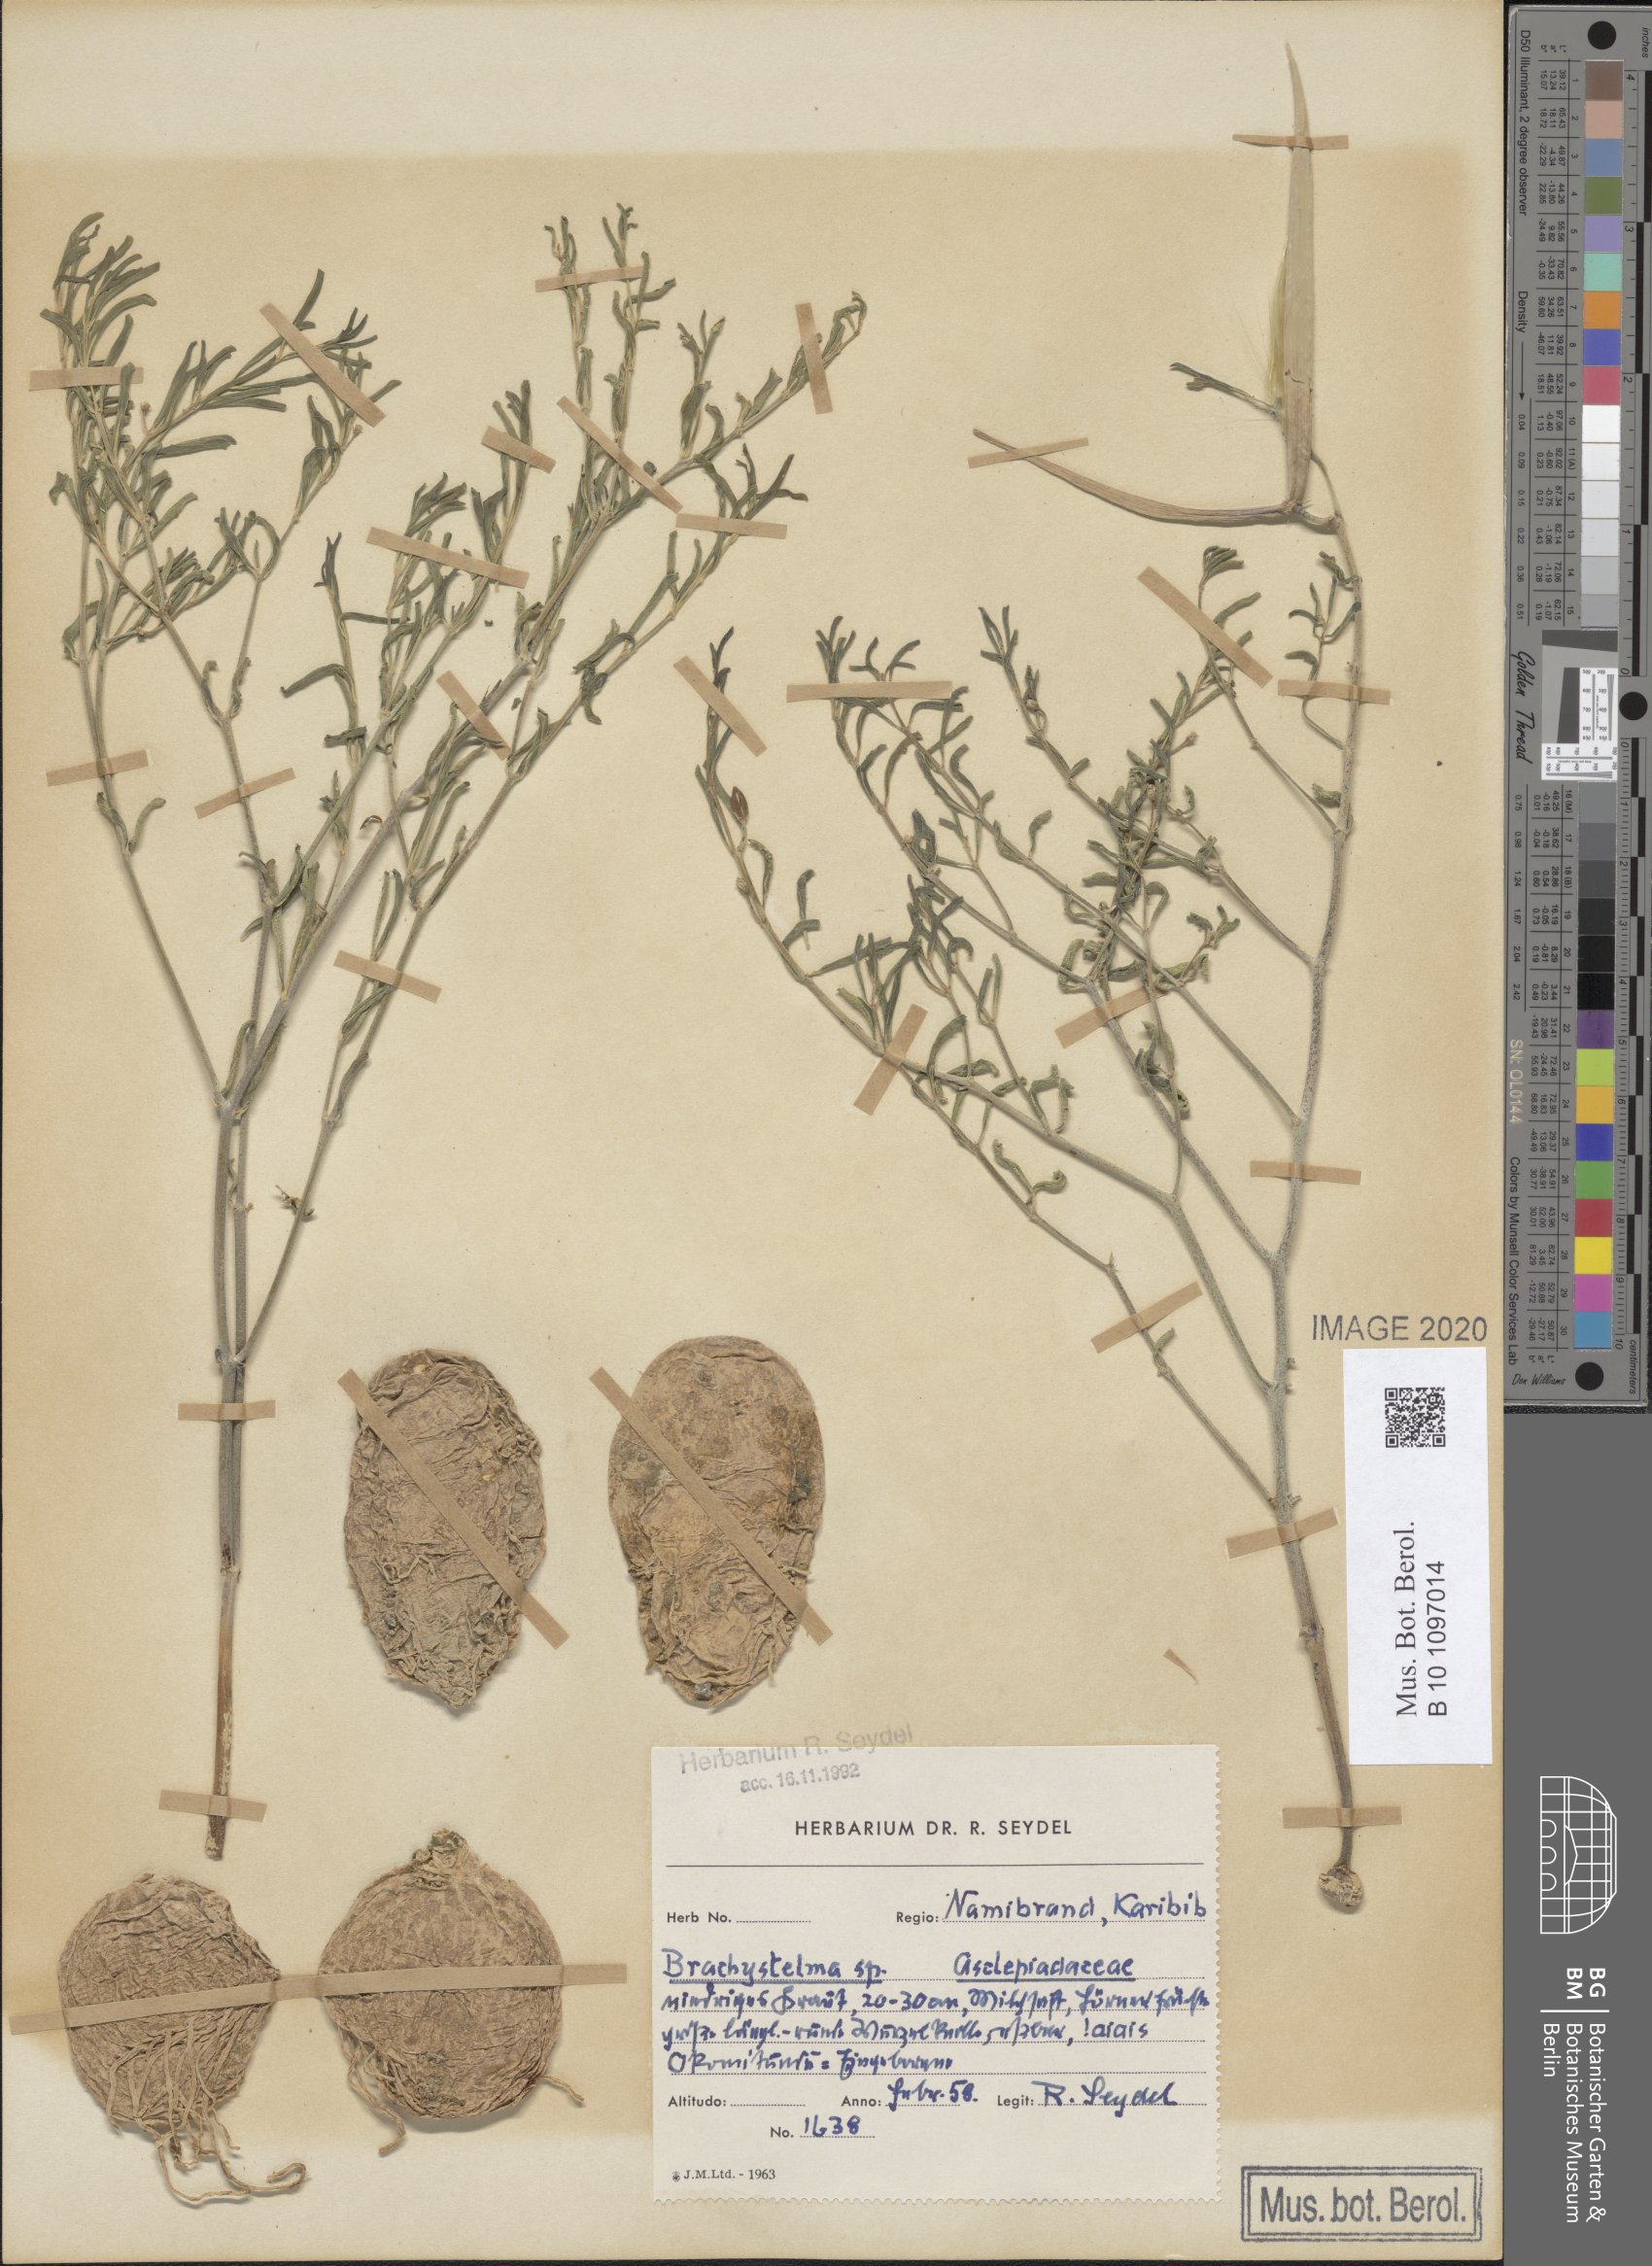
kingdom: Plantae
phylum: Tracheophyta
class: Magnoliopsida
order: Gentianales
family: Apocynaceae
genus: Ceropegia
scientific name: Ceropegia
